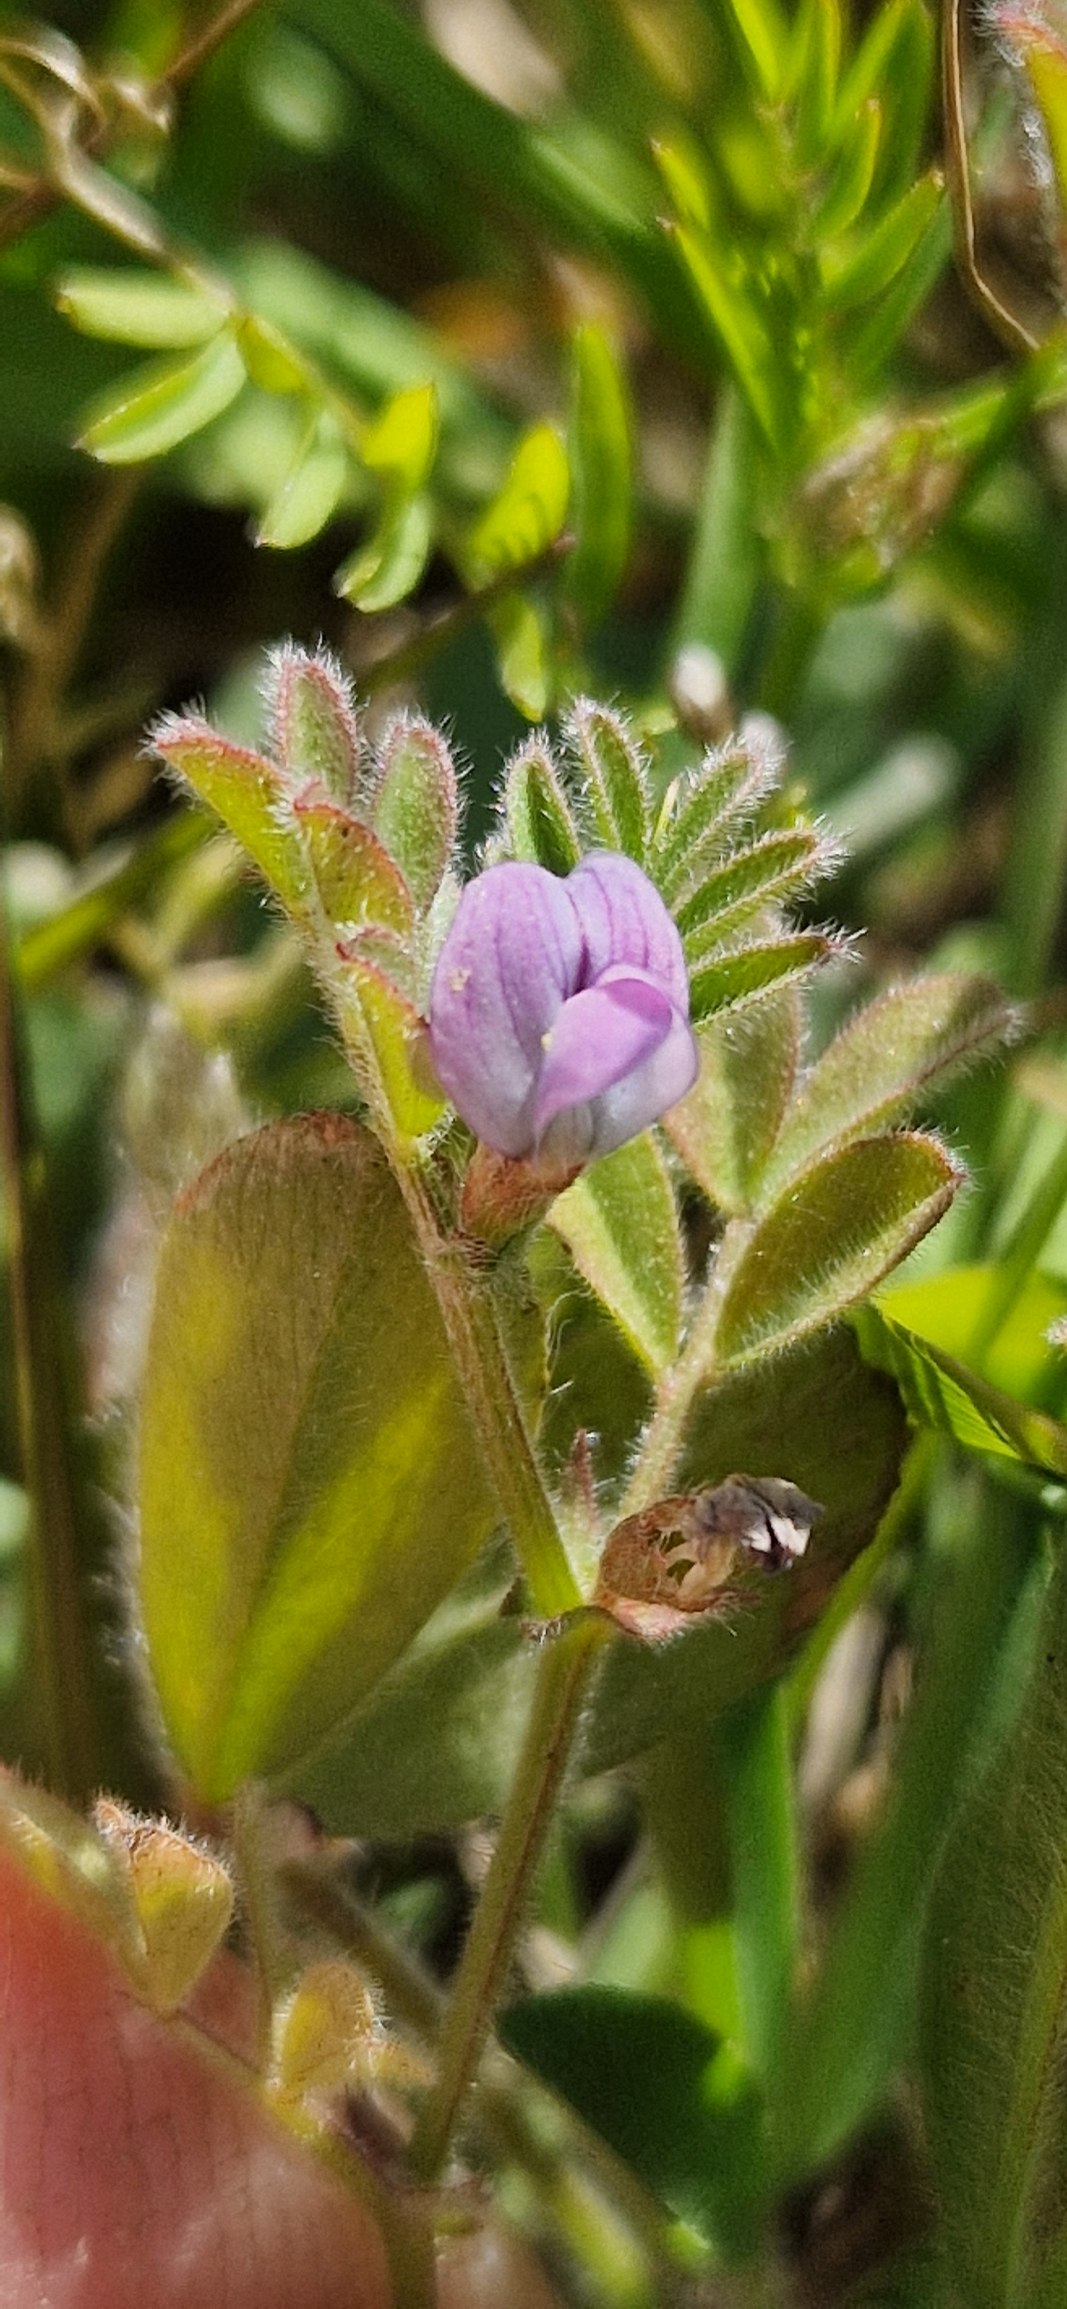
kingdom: Plantae
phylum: Tracheophyta
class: Magnoliopsida
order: Fabales
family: Fabaceae
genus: Vicia
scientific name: Vicia lathyroides
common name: Vår-vikke
